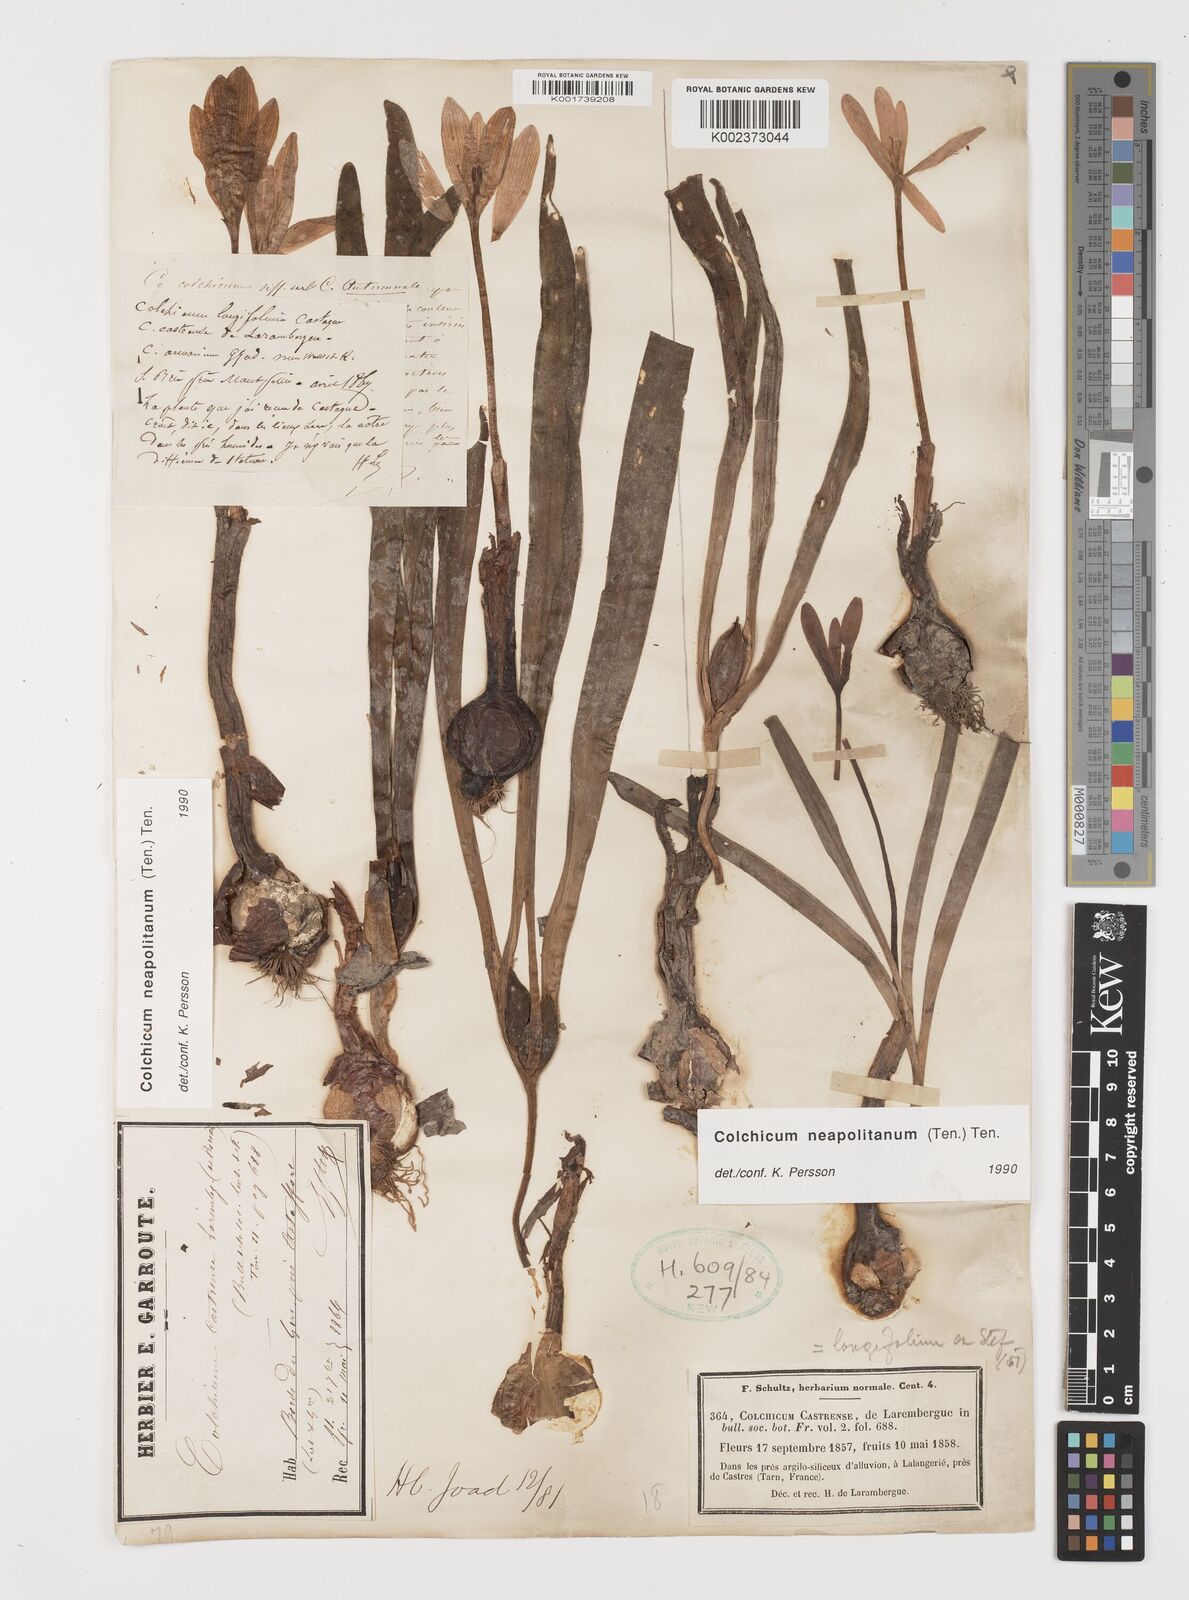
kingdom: Plantae
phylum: Tracheophyta
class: Liliopsida
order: Liliales
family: Colchicaceae
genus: Colchicum
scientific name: Colchicum neapolitanum
